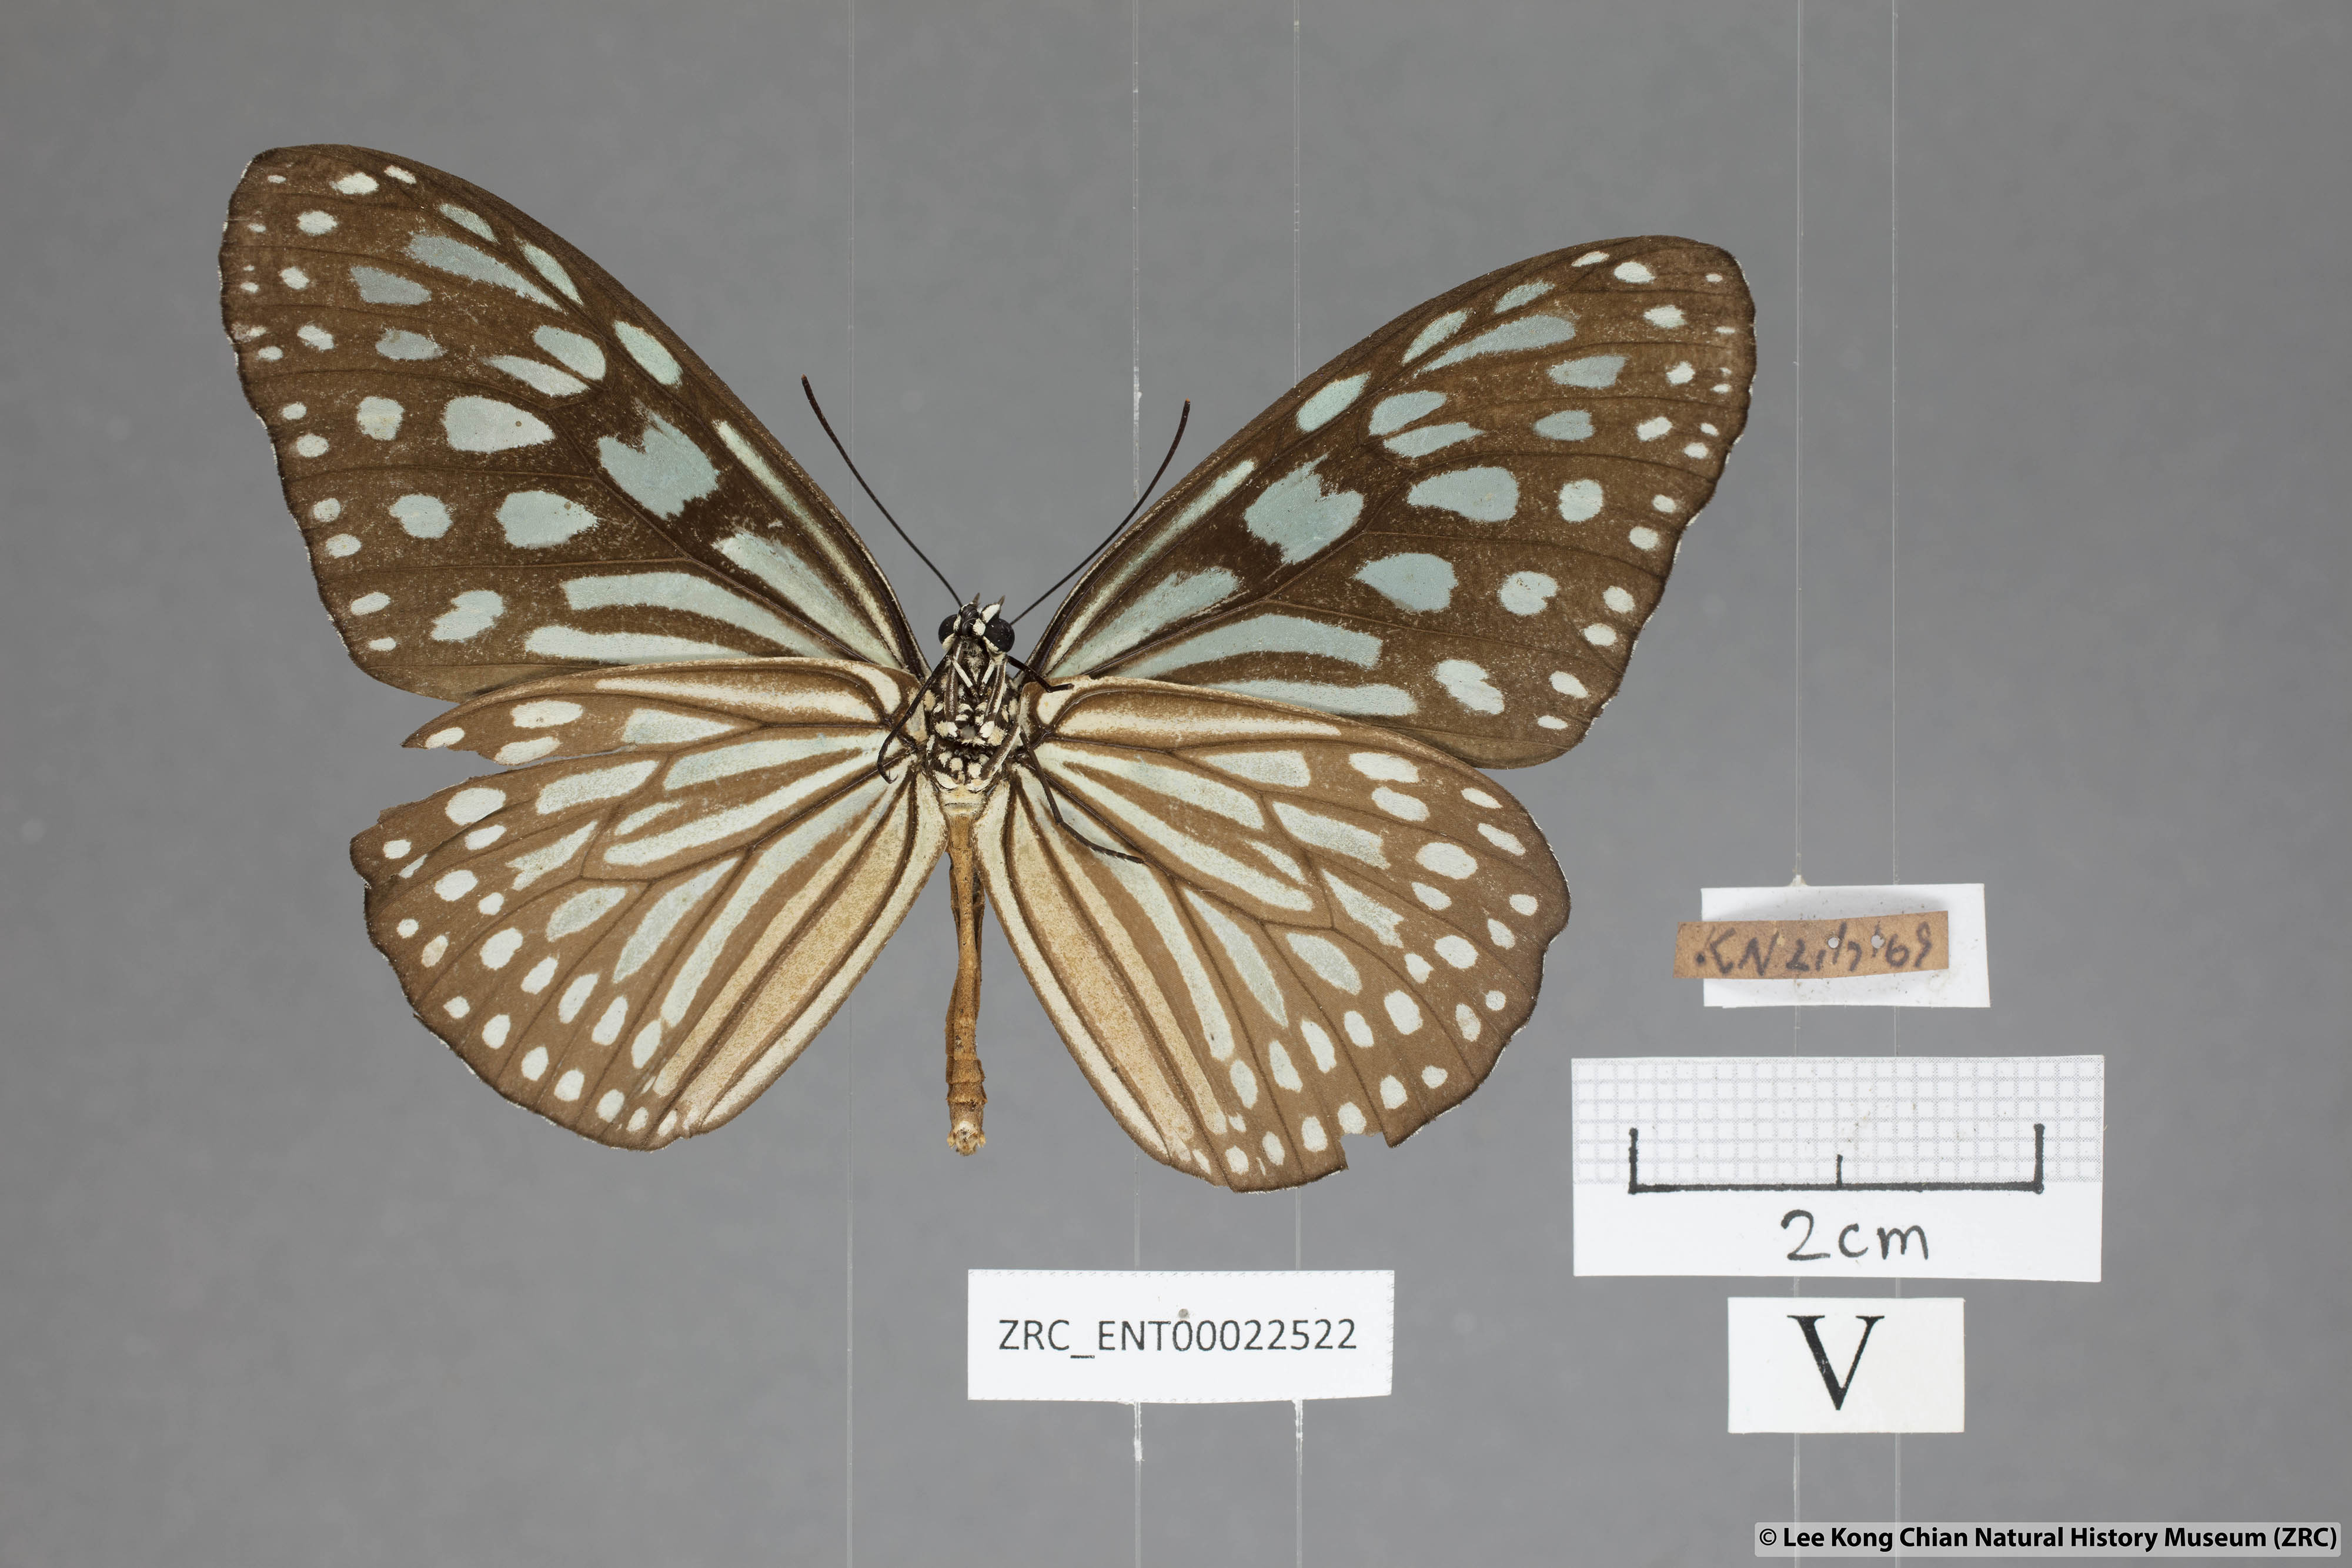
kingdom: Animalia
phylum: Arthropoda
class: Insecta
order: Lepidoptera
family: Nymphalidae
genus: Ideopsis
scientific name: Ideopsis similis
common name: Ceylon blue glassy tiger
